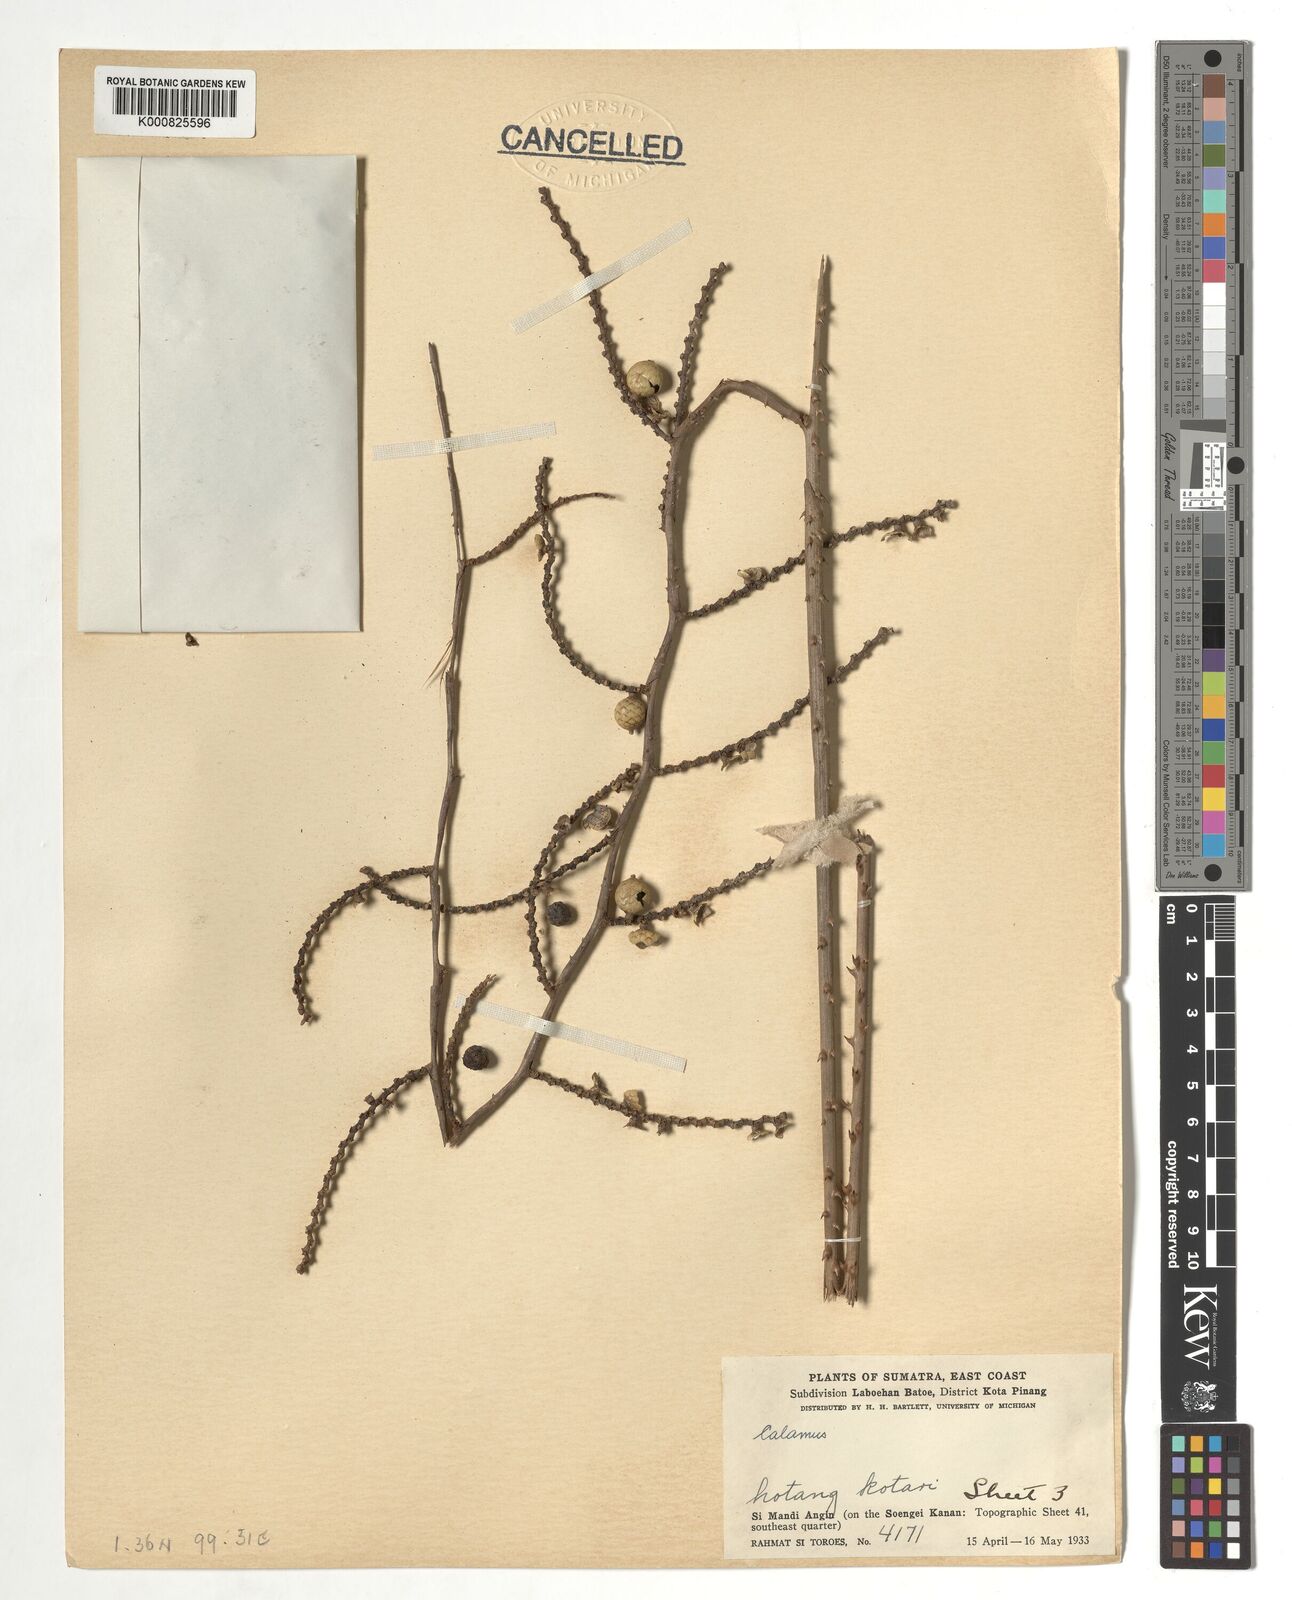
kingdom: Plantae
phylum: Tracheophyta
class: Liliopsida
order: Arecales
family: Arecaceae
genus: Calamus
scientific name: Calamus
